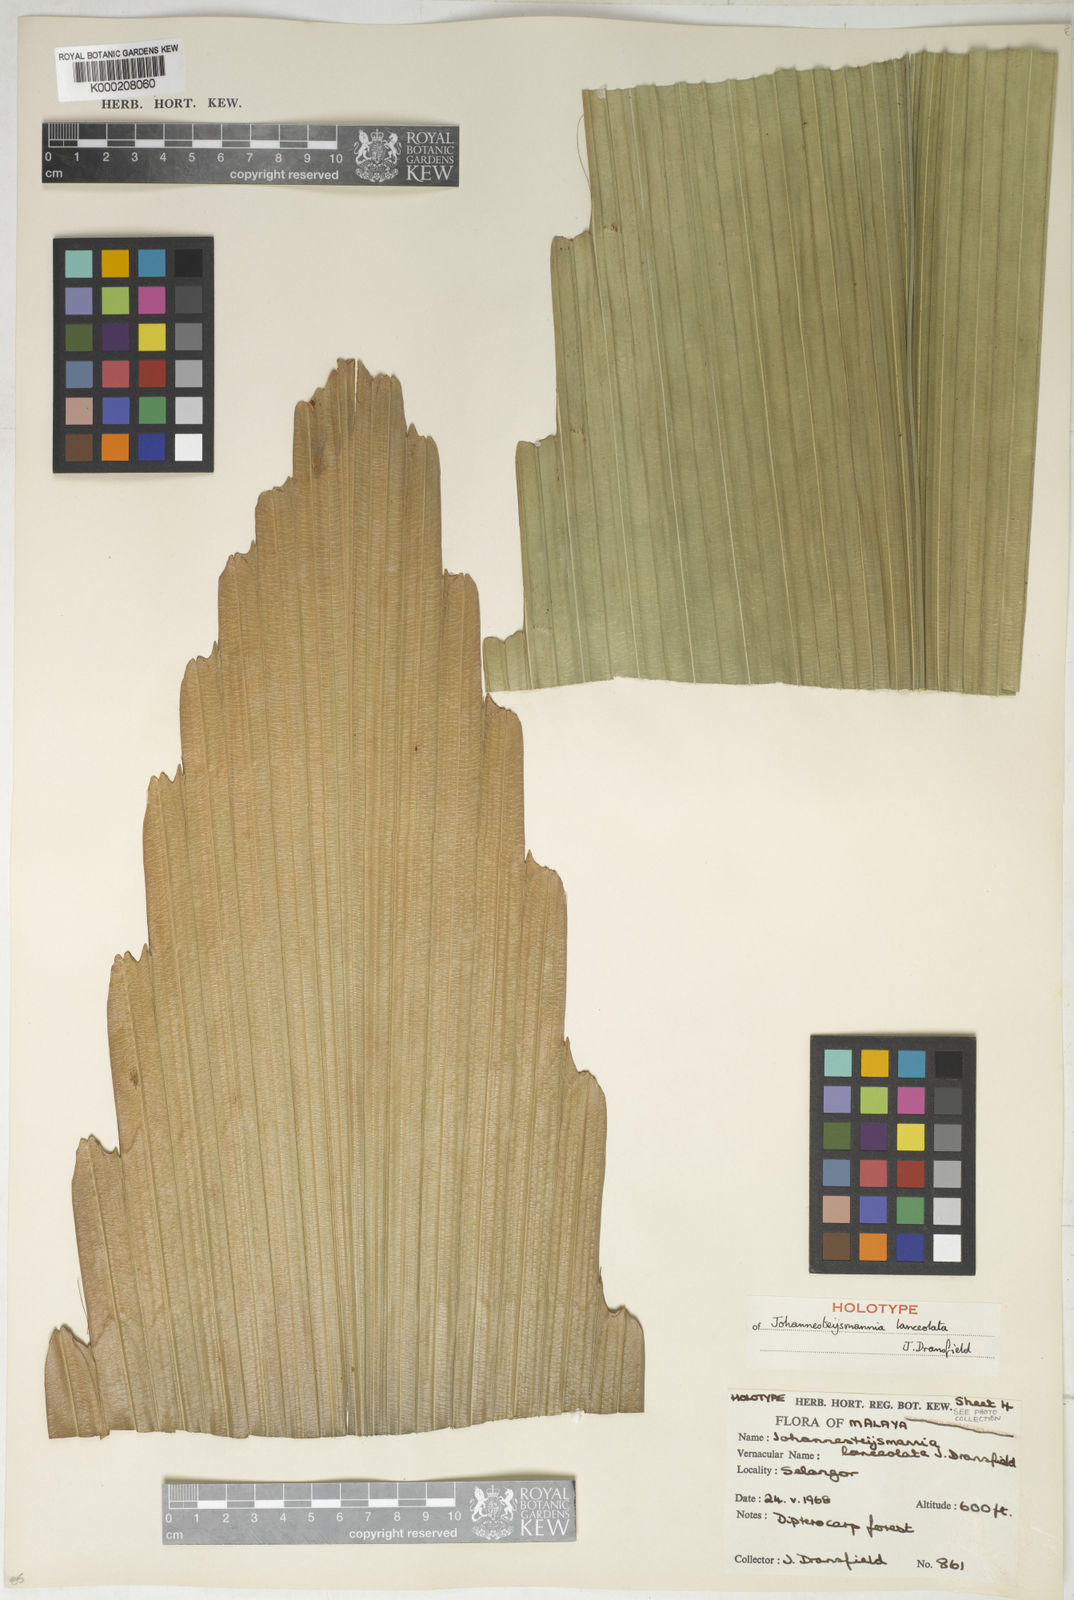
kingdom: Plantae
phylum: Tracheophyta
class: Liliopsida
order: Arecales
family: Arecaceae
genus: Johannesteijsmannia
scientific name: Johannesteijsmannia lanceolata
